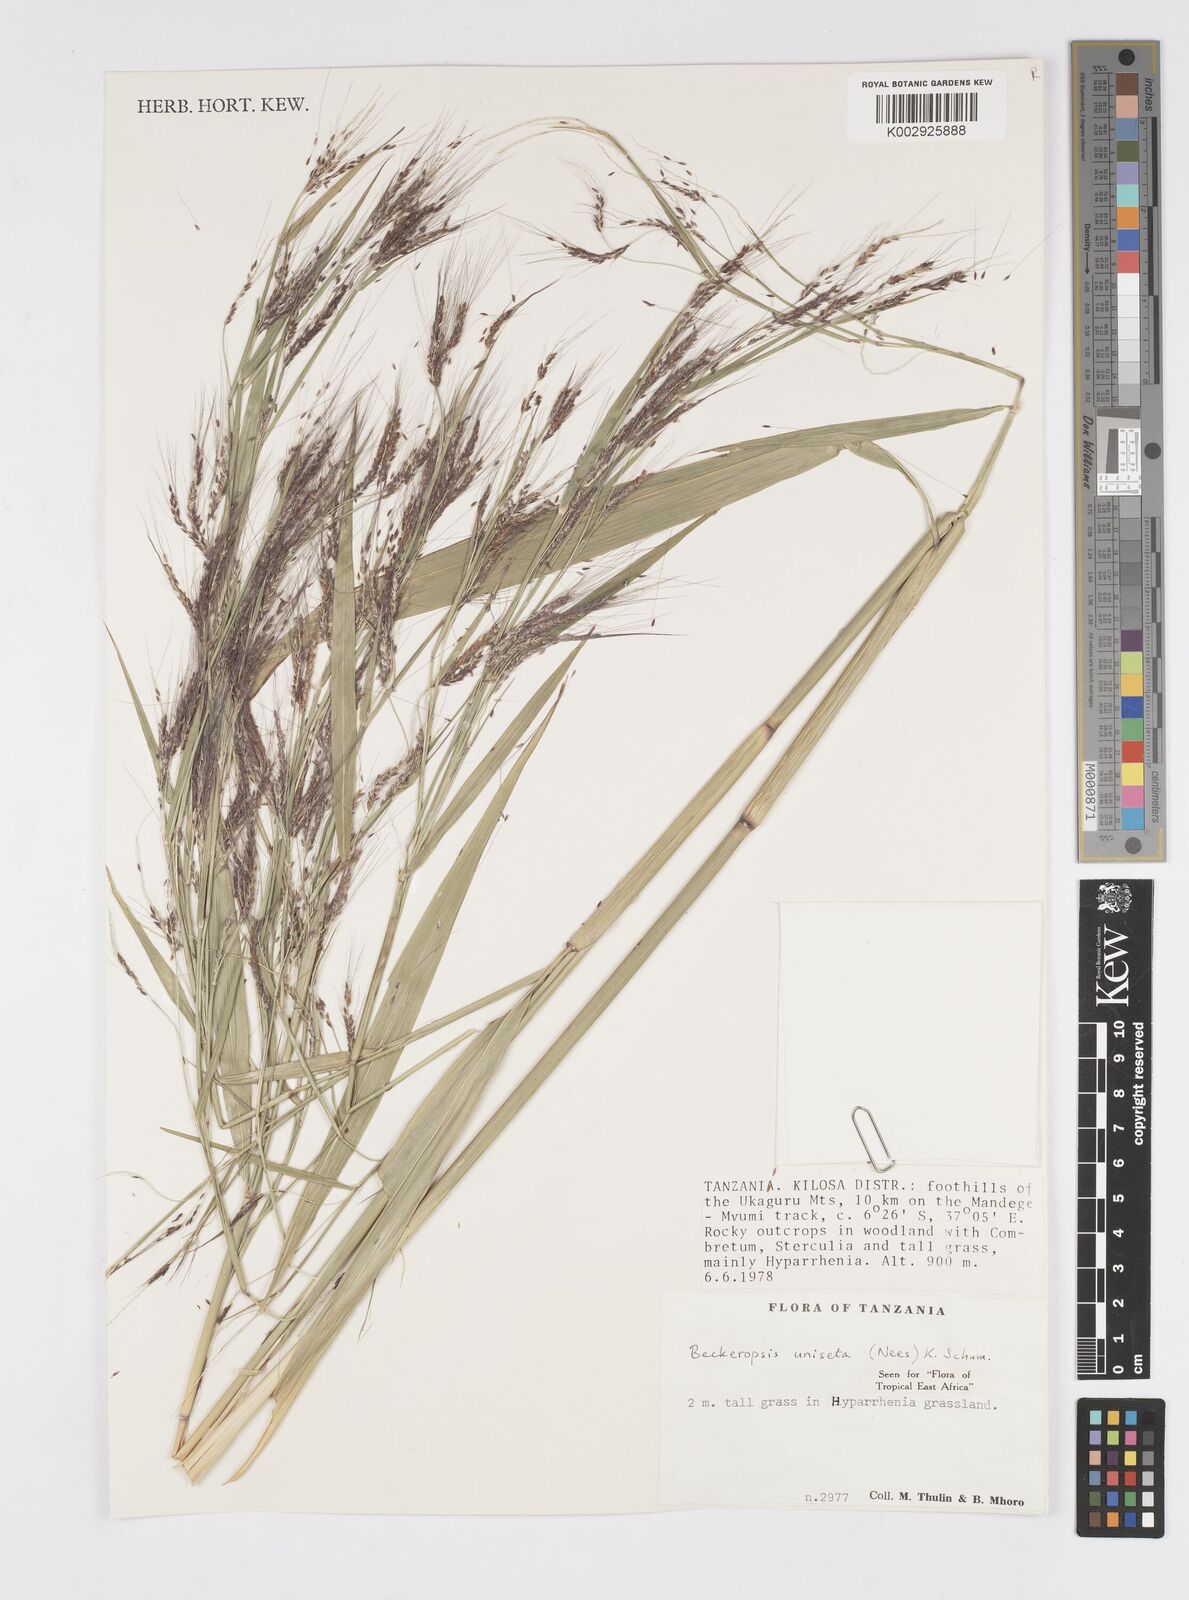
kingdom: Plantae
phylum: Tracheophyta
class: Liliopsida
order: Poales
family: Poaceae
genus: Cenchrus
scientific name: Cenchrus Pennisetum spec
